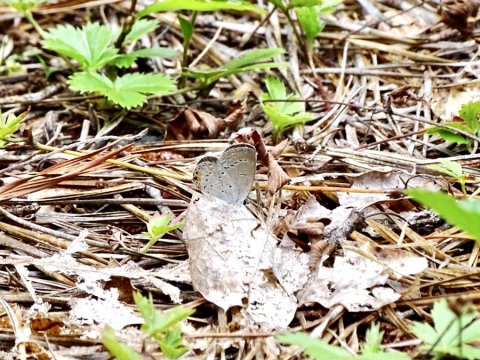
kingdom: Animalia
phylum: Arthropoda
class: Insecta
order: Lepidoptera
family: Lycaenidae
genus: Elkalyce
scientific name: Elkalyce comyntas
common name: Eastern Tailed-Blue
